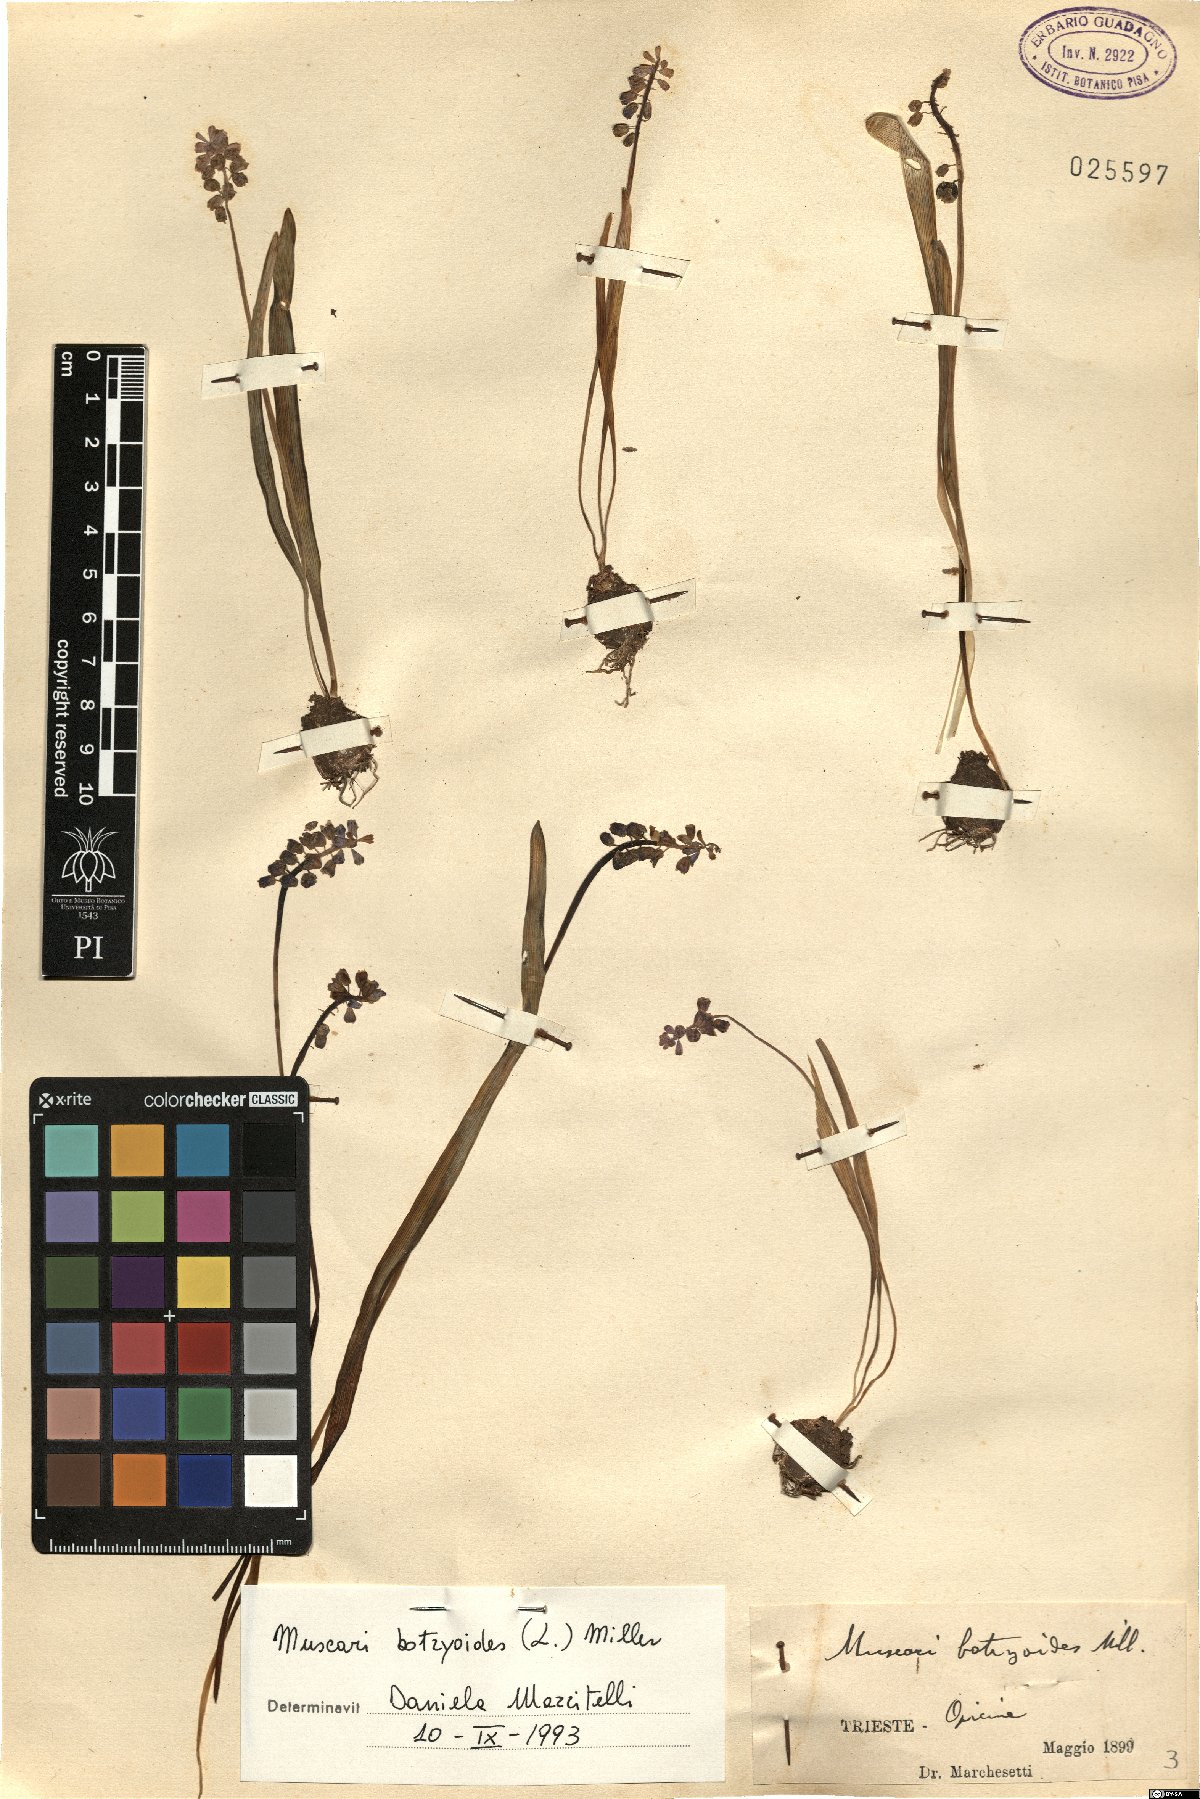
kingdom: Plantae
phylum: Tracheophyta
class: Liliopsida
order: Asparagales
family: Asparagaceae
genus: Muscari
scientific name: Muscari botryoides
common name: Compact grape-hyacinth
